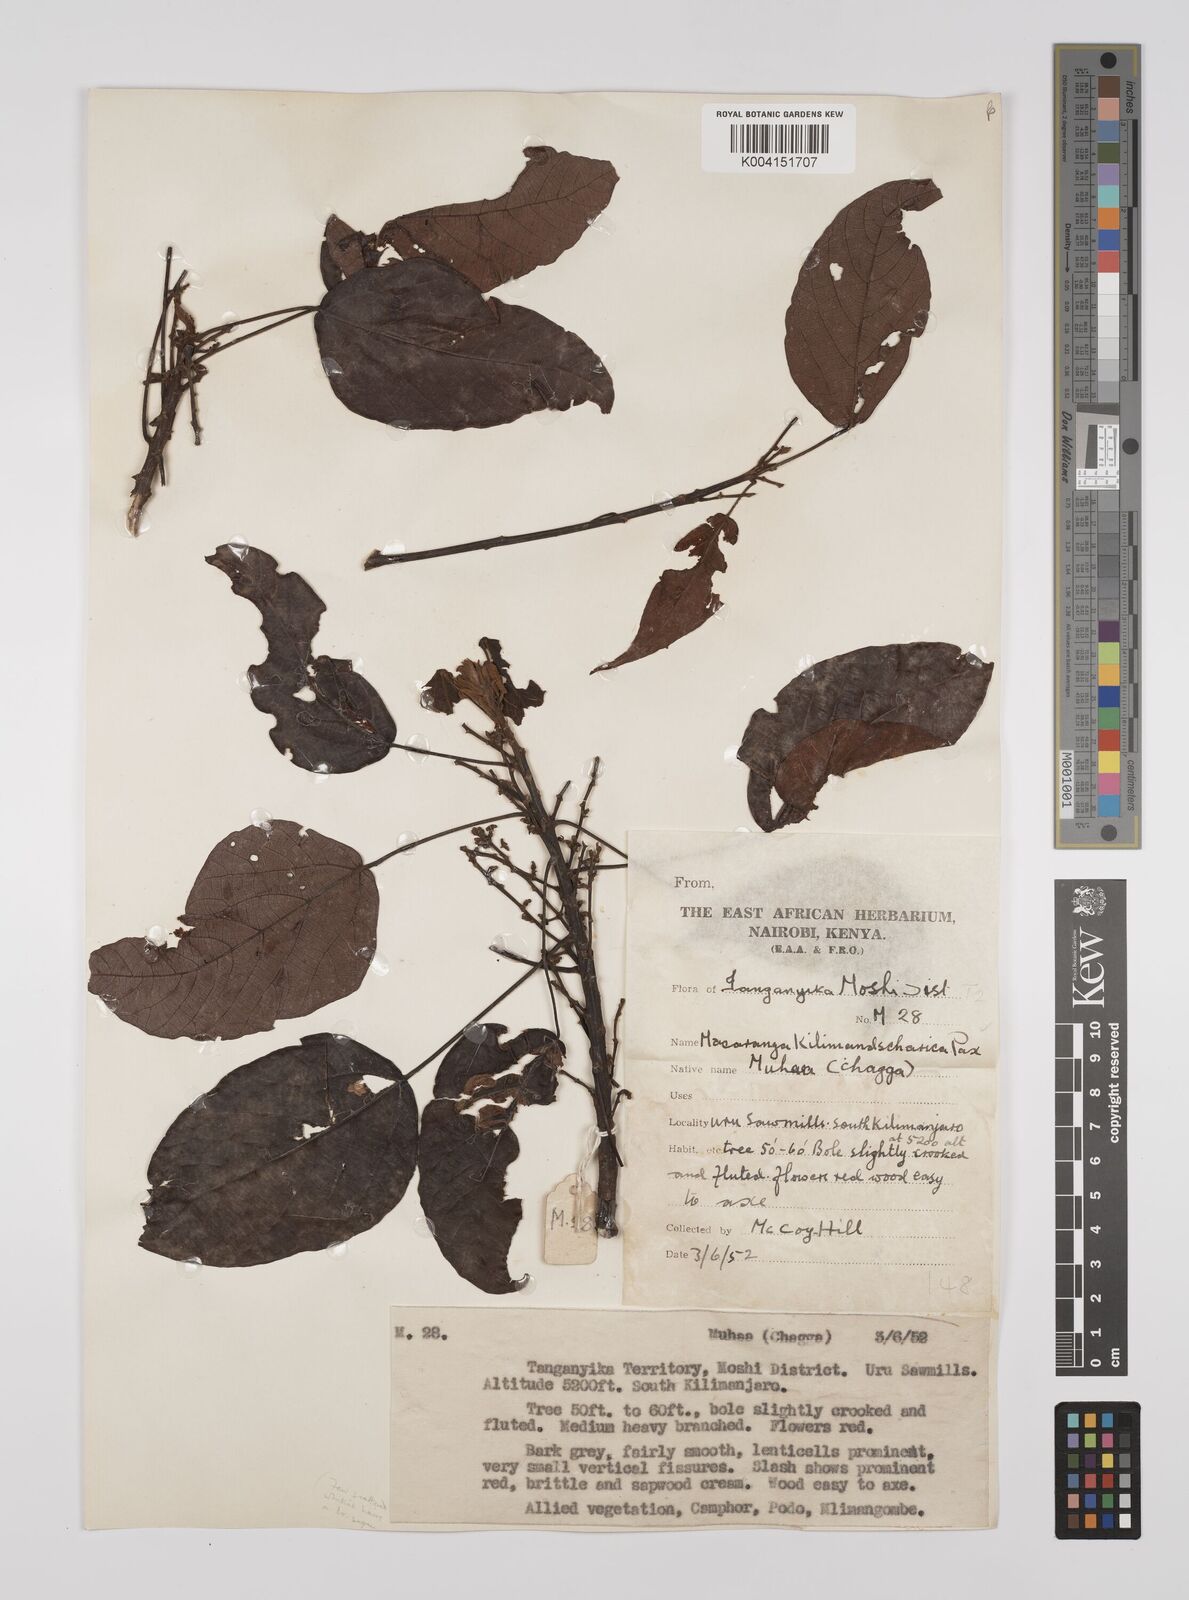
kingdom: Plantae
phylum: Tracheophyta
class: Magnoliopsida
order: Malpighiales
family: Euphorbiaceae
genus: Macaranga
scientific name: Macaranga kilimandscharica
